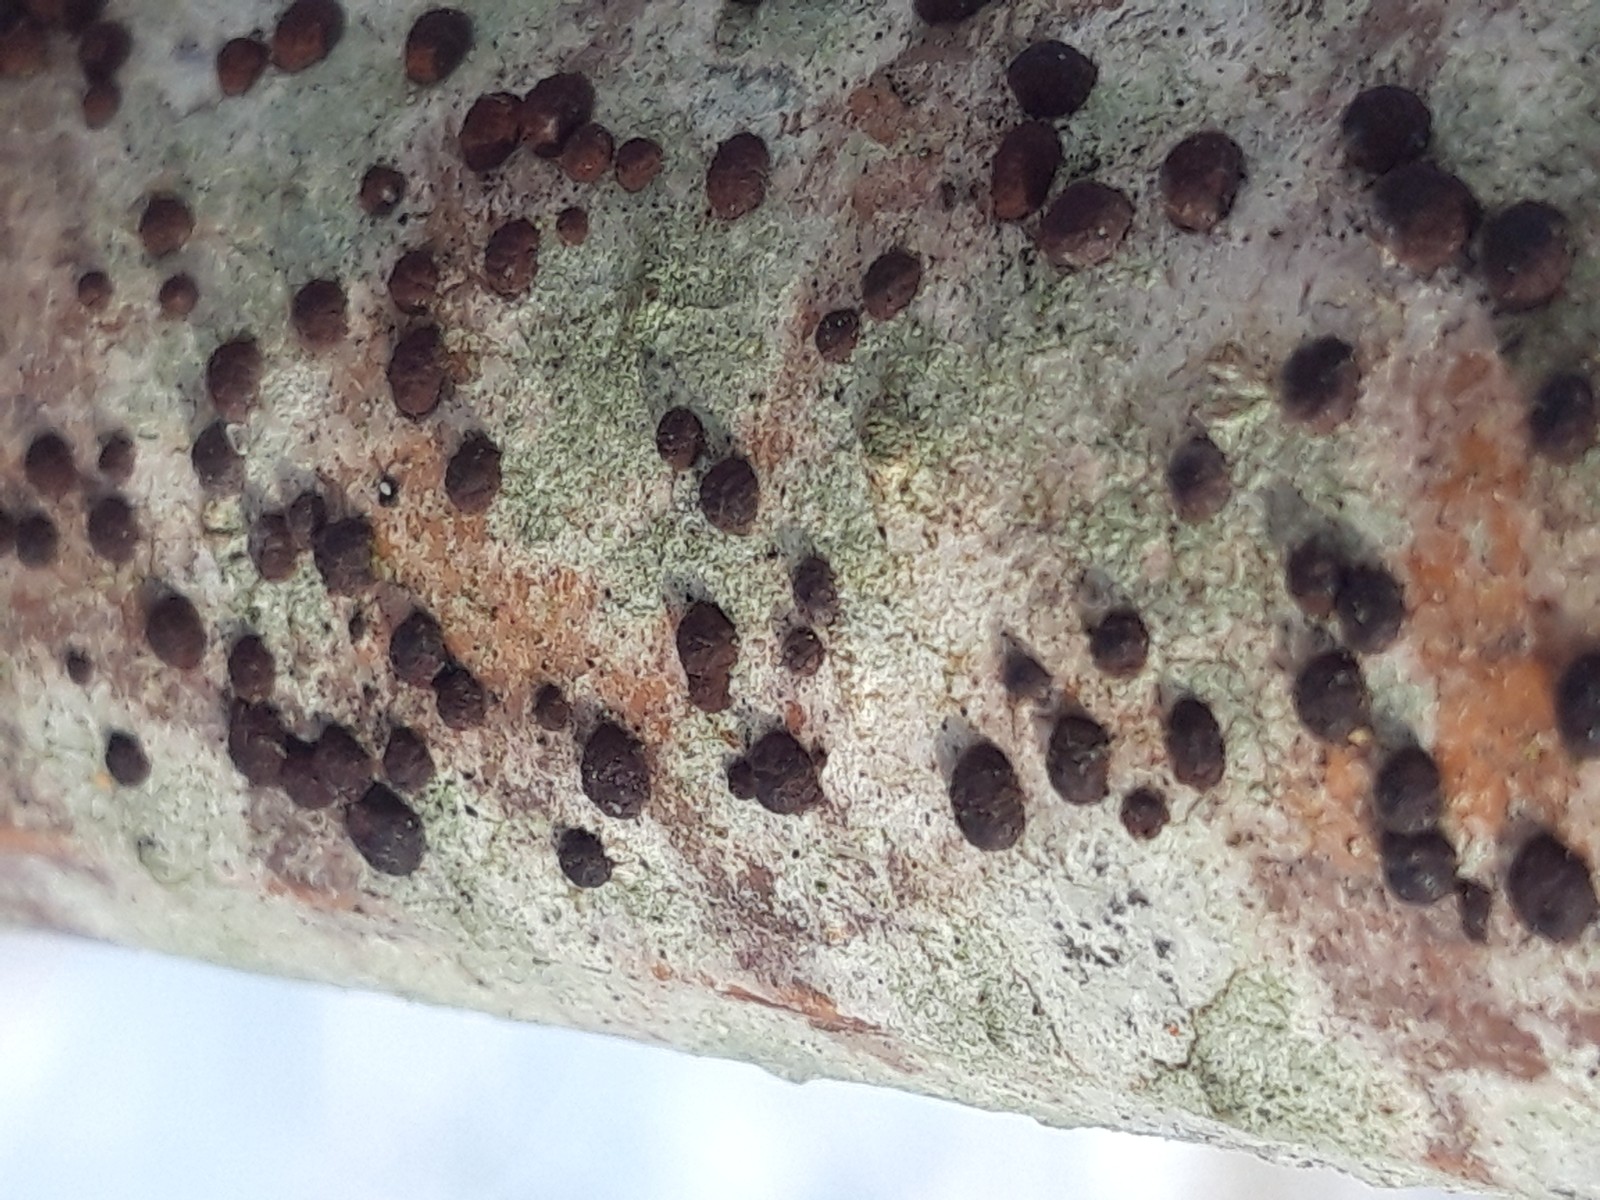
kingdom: Fungi
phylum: Ascomycota
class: Sordariomycetes
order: Xylariales
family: Hypoxylaceae
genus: Hypoxylon
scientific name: Hypoxylon fuscoides
